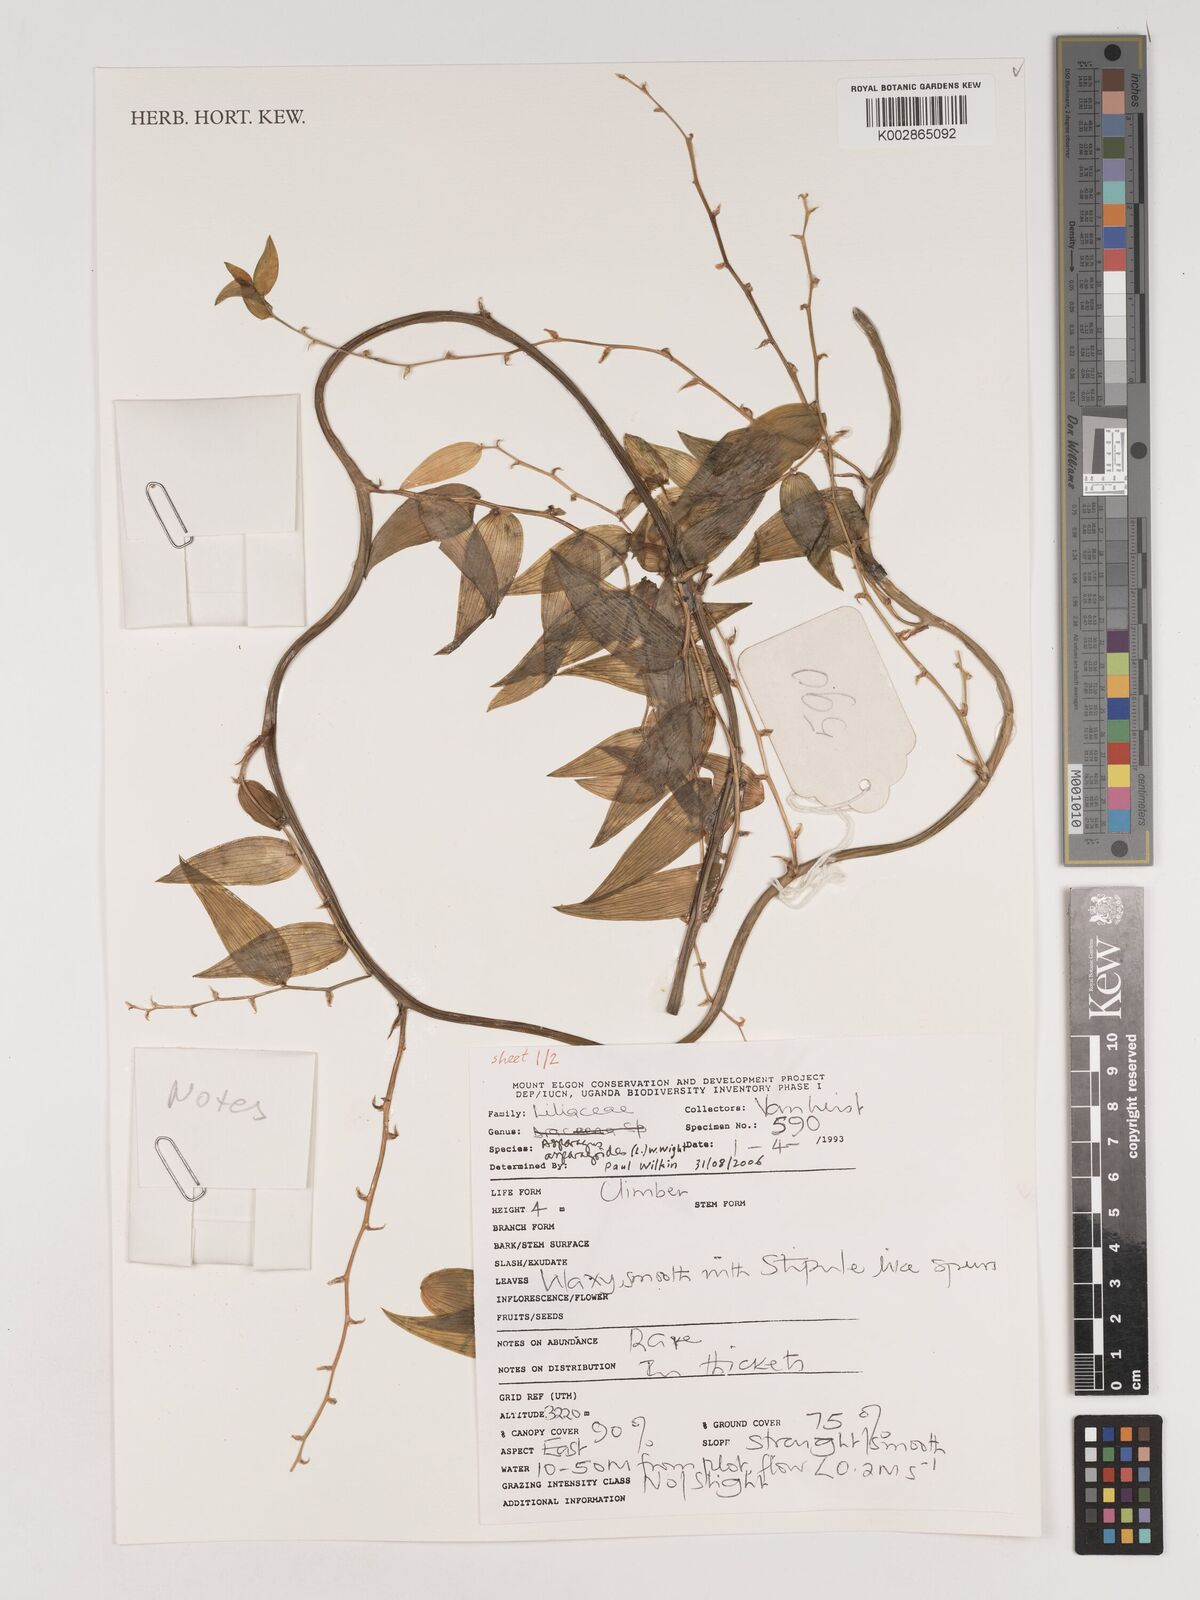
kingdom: Plantae
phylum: Tracheophyta
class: Liliopsida
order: Asparagales
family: Asparagaceae
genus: Asparagus
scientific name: Asparagus asparagoides
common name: African asparagus fern
